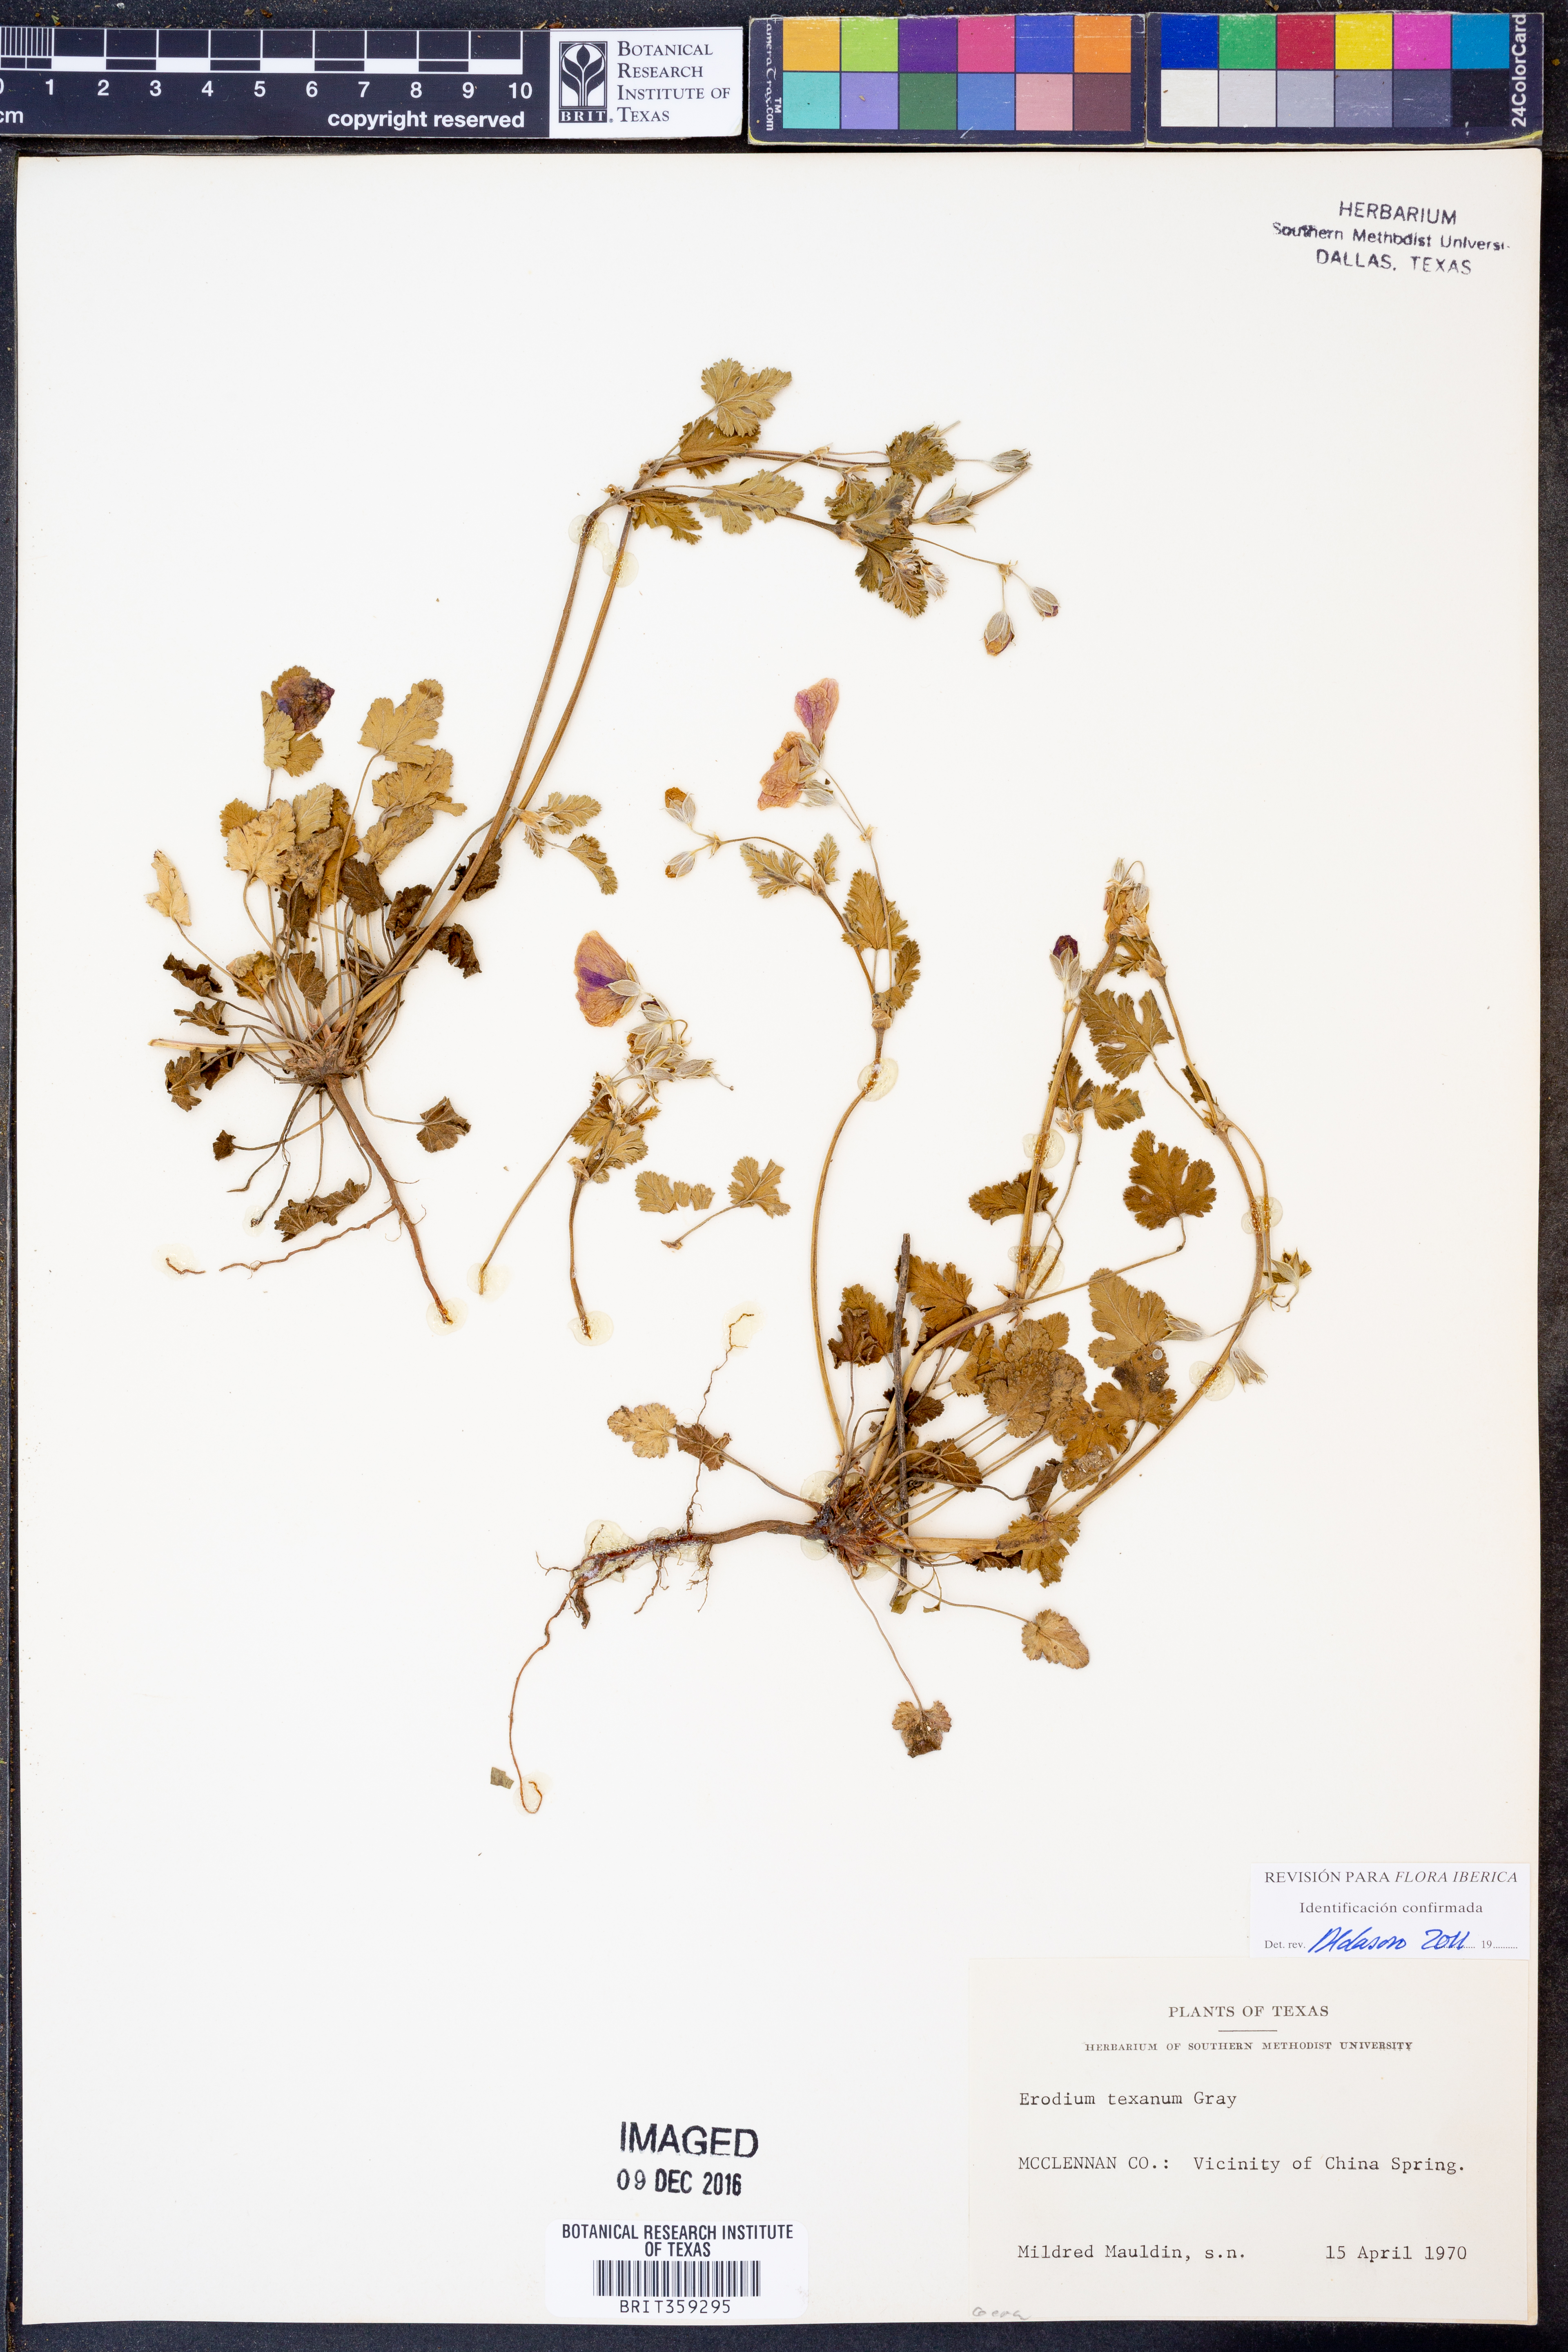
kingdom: Plantae
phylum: Tracheophyta
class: Magnoliopsida
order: Geraniales
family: Geraniaceae
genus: Erodium
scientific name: Erodium texanum
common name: Texas stork's-bill
